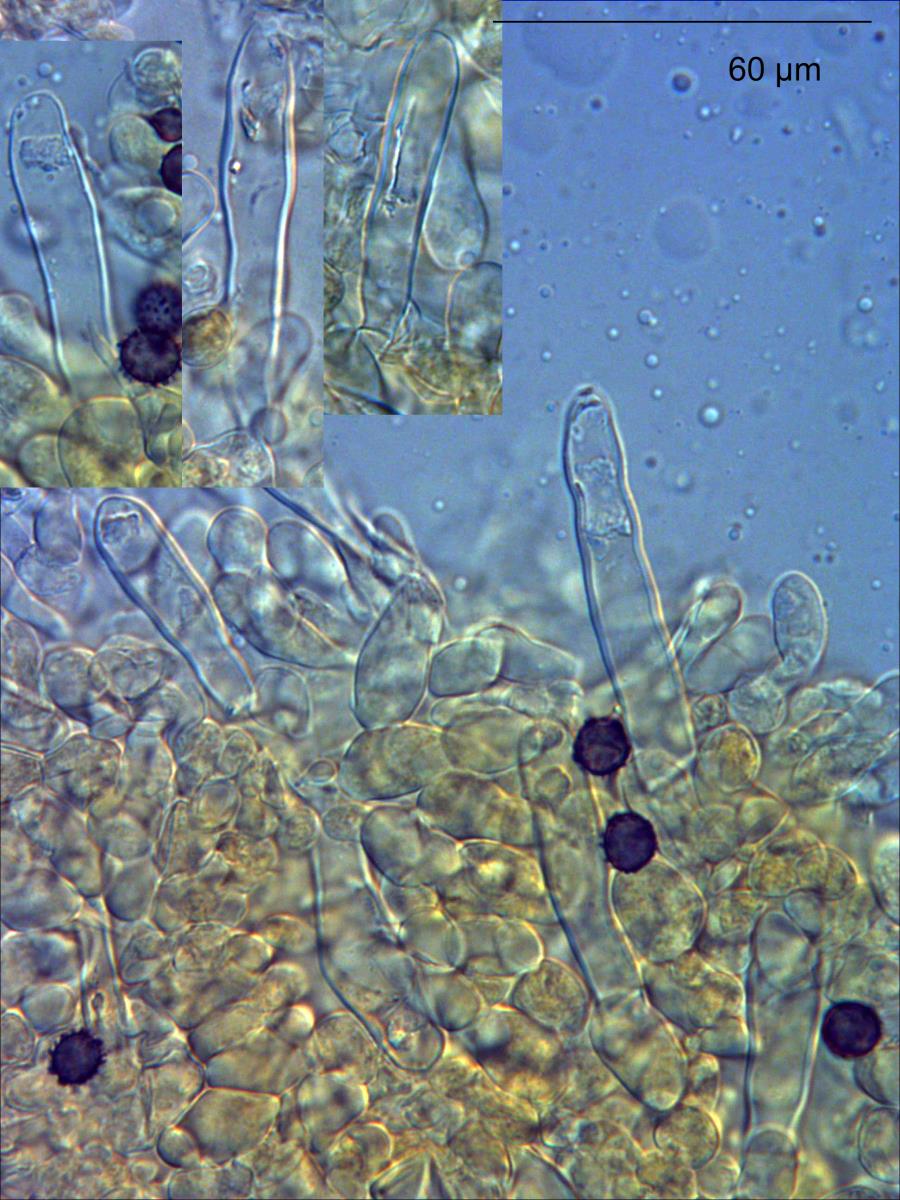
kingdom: Fungi
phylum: Basidiomycota
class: Agaricomycetes
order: Russulales
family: Russulaceae
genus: Russula
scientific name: Russula purpureotincta
